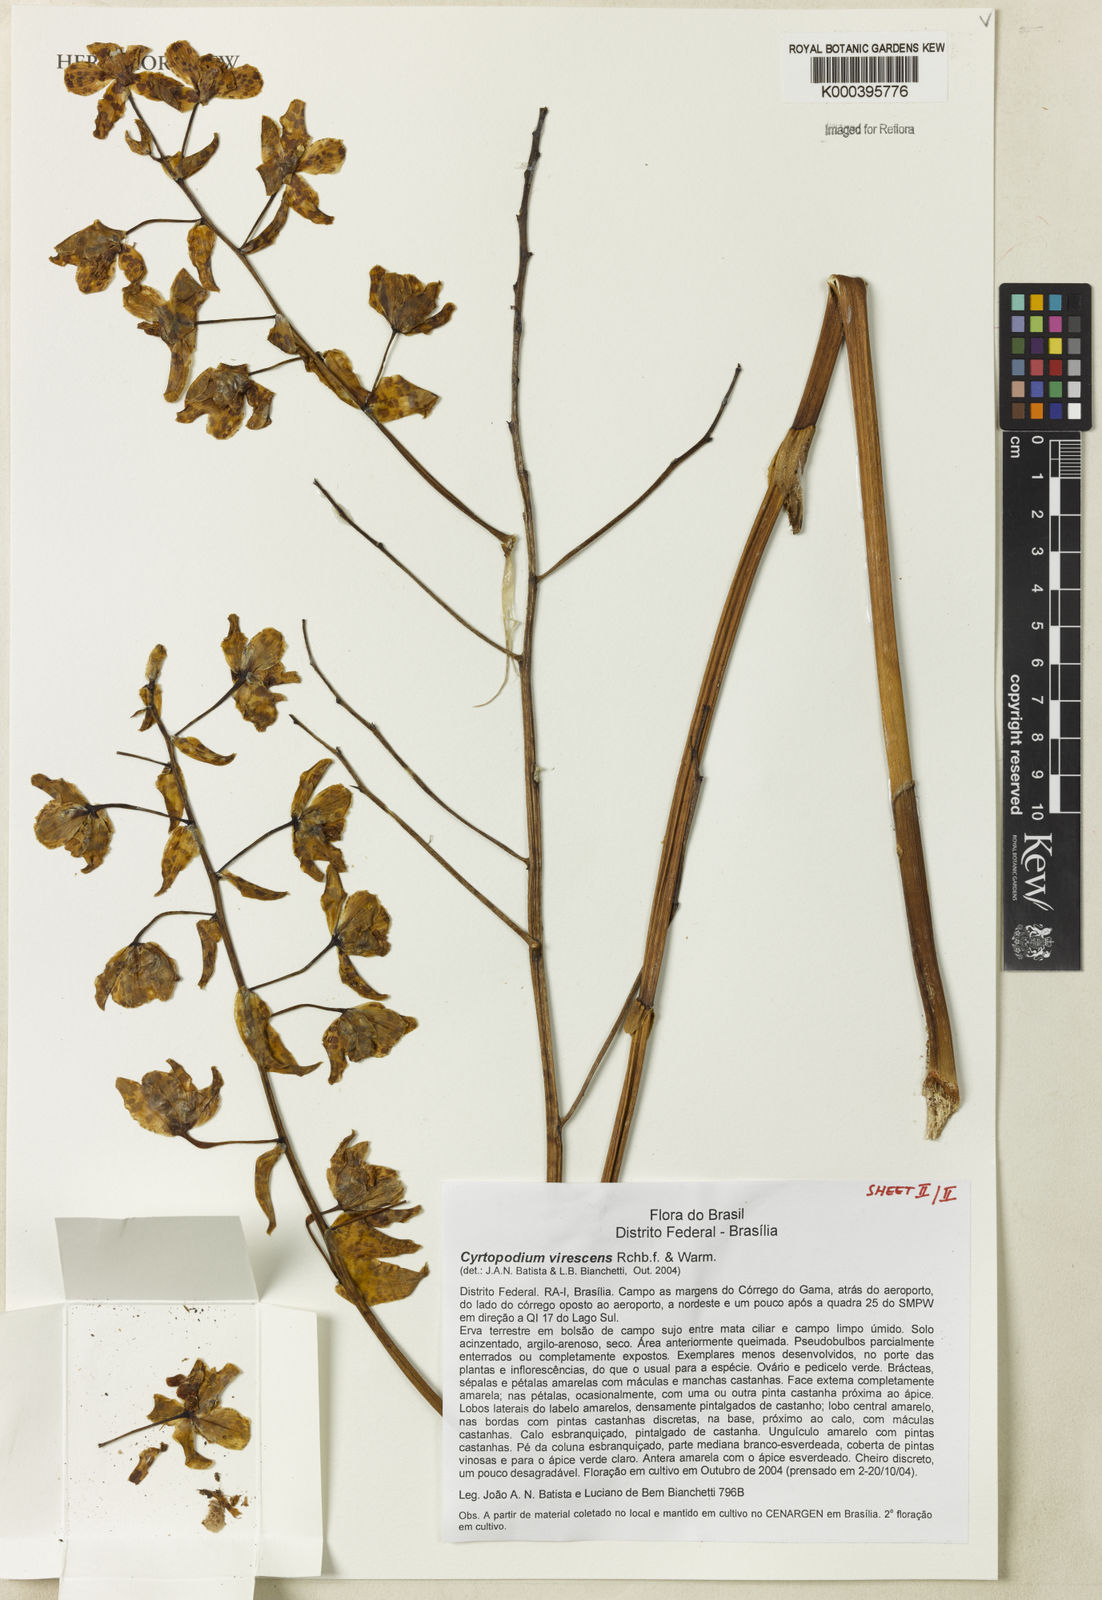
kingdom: Plantae
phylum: Tracheophyta
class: Liliopsida
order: Asparagales
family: Orchidaceae
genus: Cyrtopodium
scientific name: Cyrtopodium virescens
